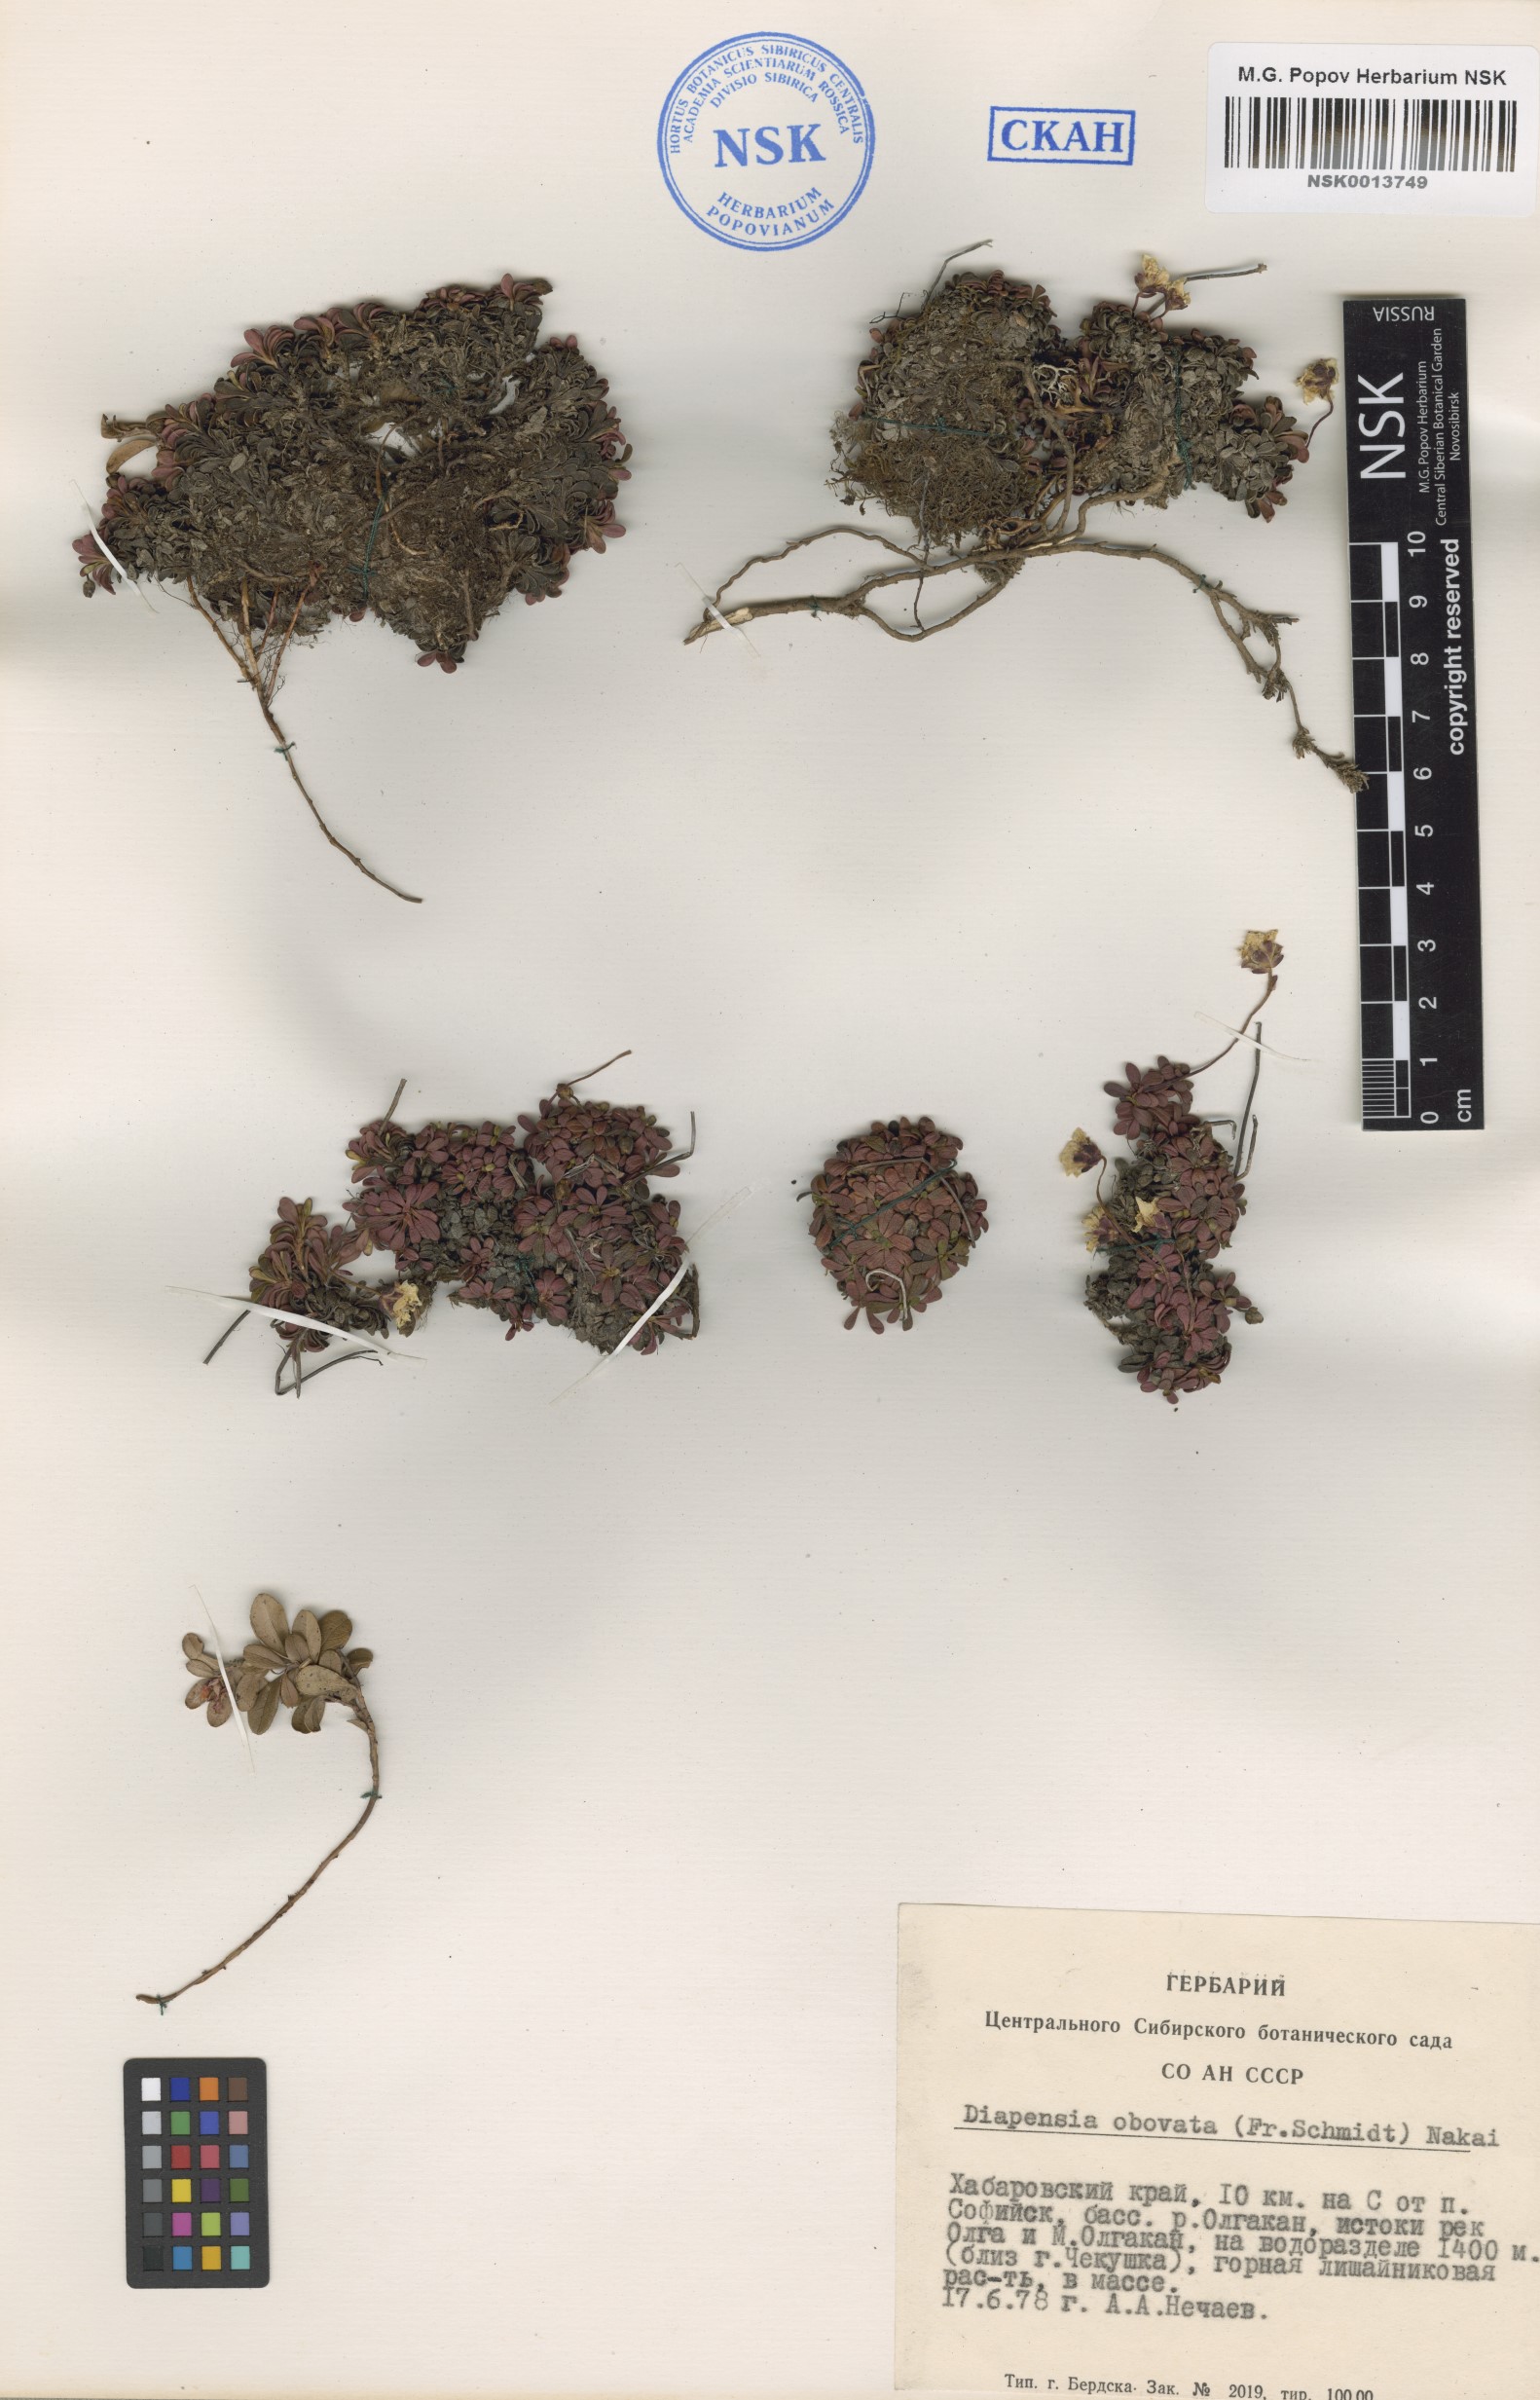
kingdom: Plantae
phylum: Tracheophyta
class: Magnoliopsida
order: Ericales
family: Diapensiaceae
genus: Diapensia
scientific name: Diapensia obovata
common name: Alaska diapensia
